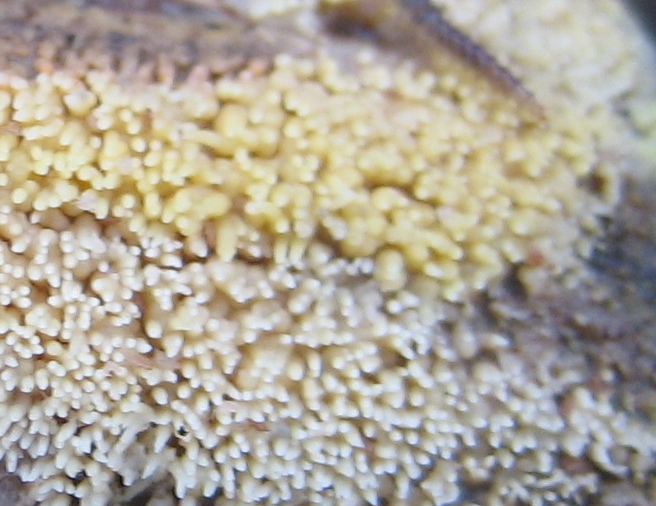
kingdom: Fungi
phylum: Basidiomycota
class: Agaricomycetes
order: Polyporales
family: Meruliaceae
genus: Mycoacia
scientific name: Mycoacia uda
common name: citrongul vokspig
